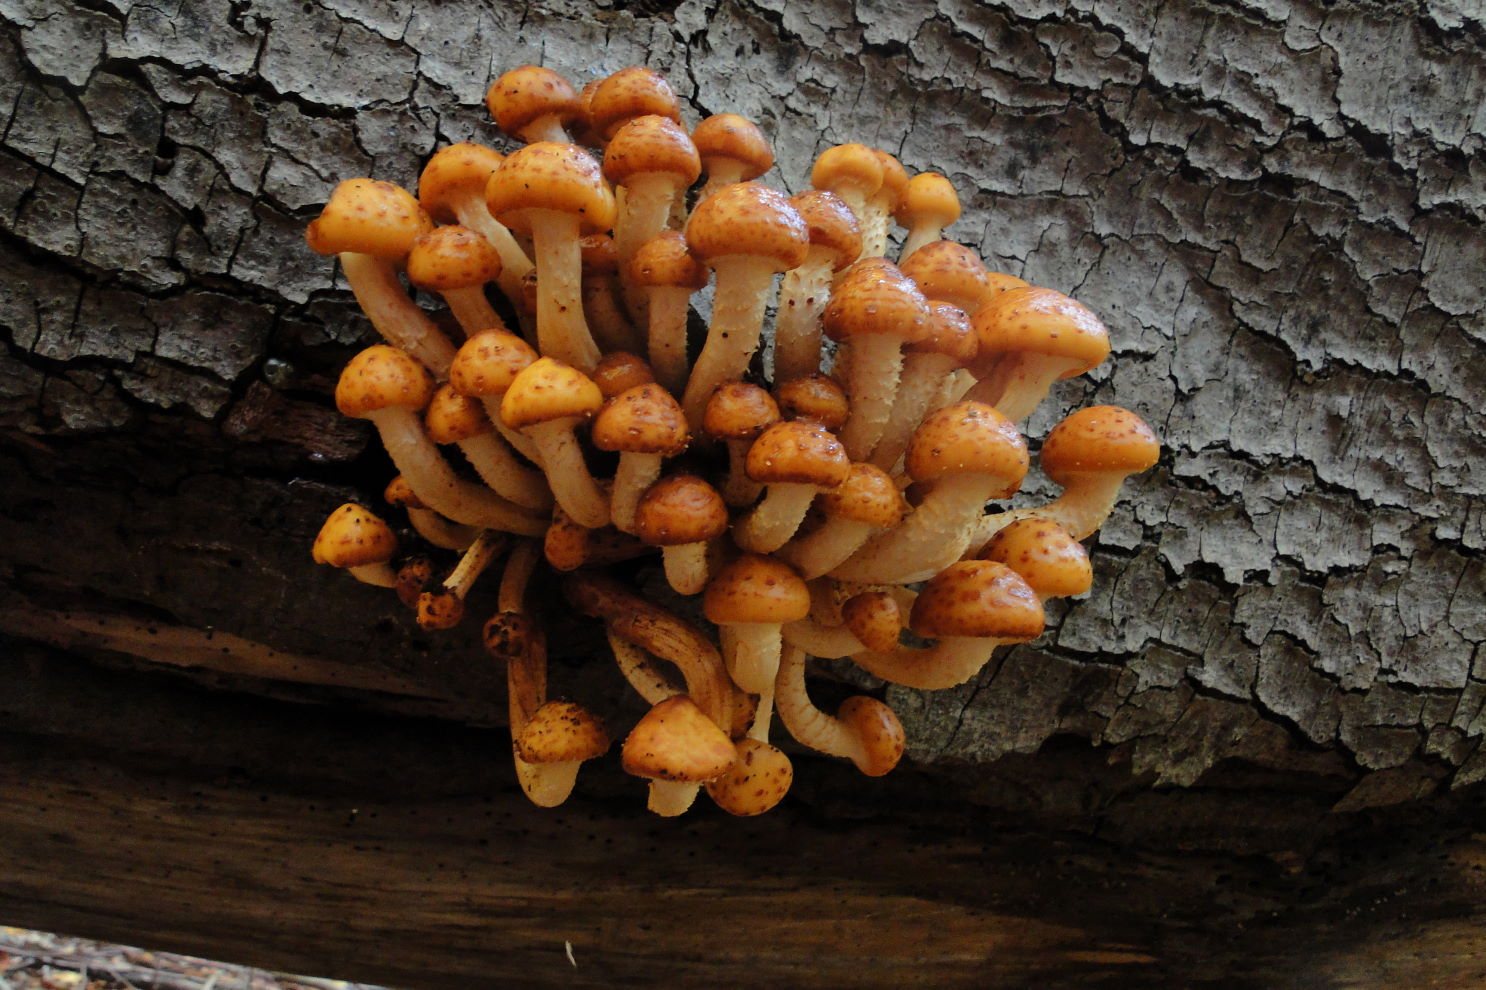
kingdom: Fungi
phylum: Basidiomycota
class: Agaricomycetes
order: Agaricales
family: Strophariaceae
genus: Pholiota
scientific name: Pholiota adiposa
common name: højtsiddende skælhat
